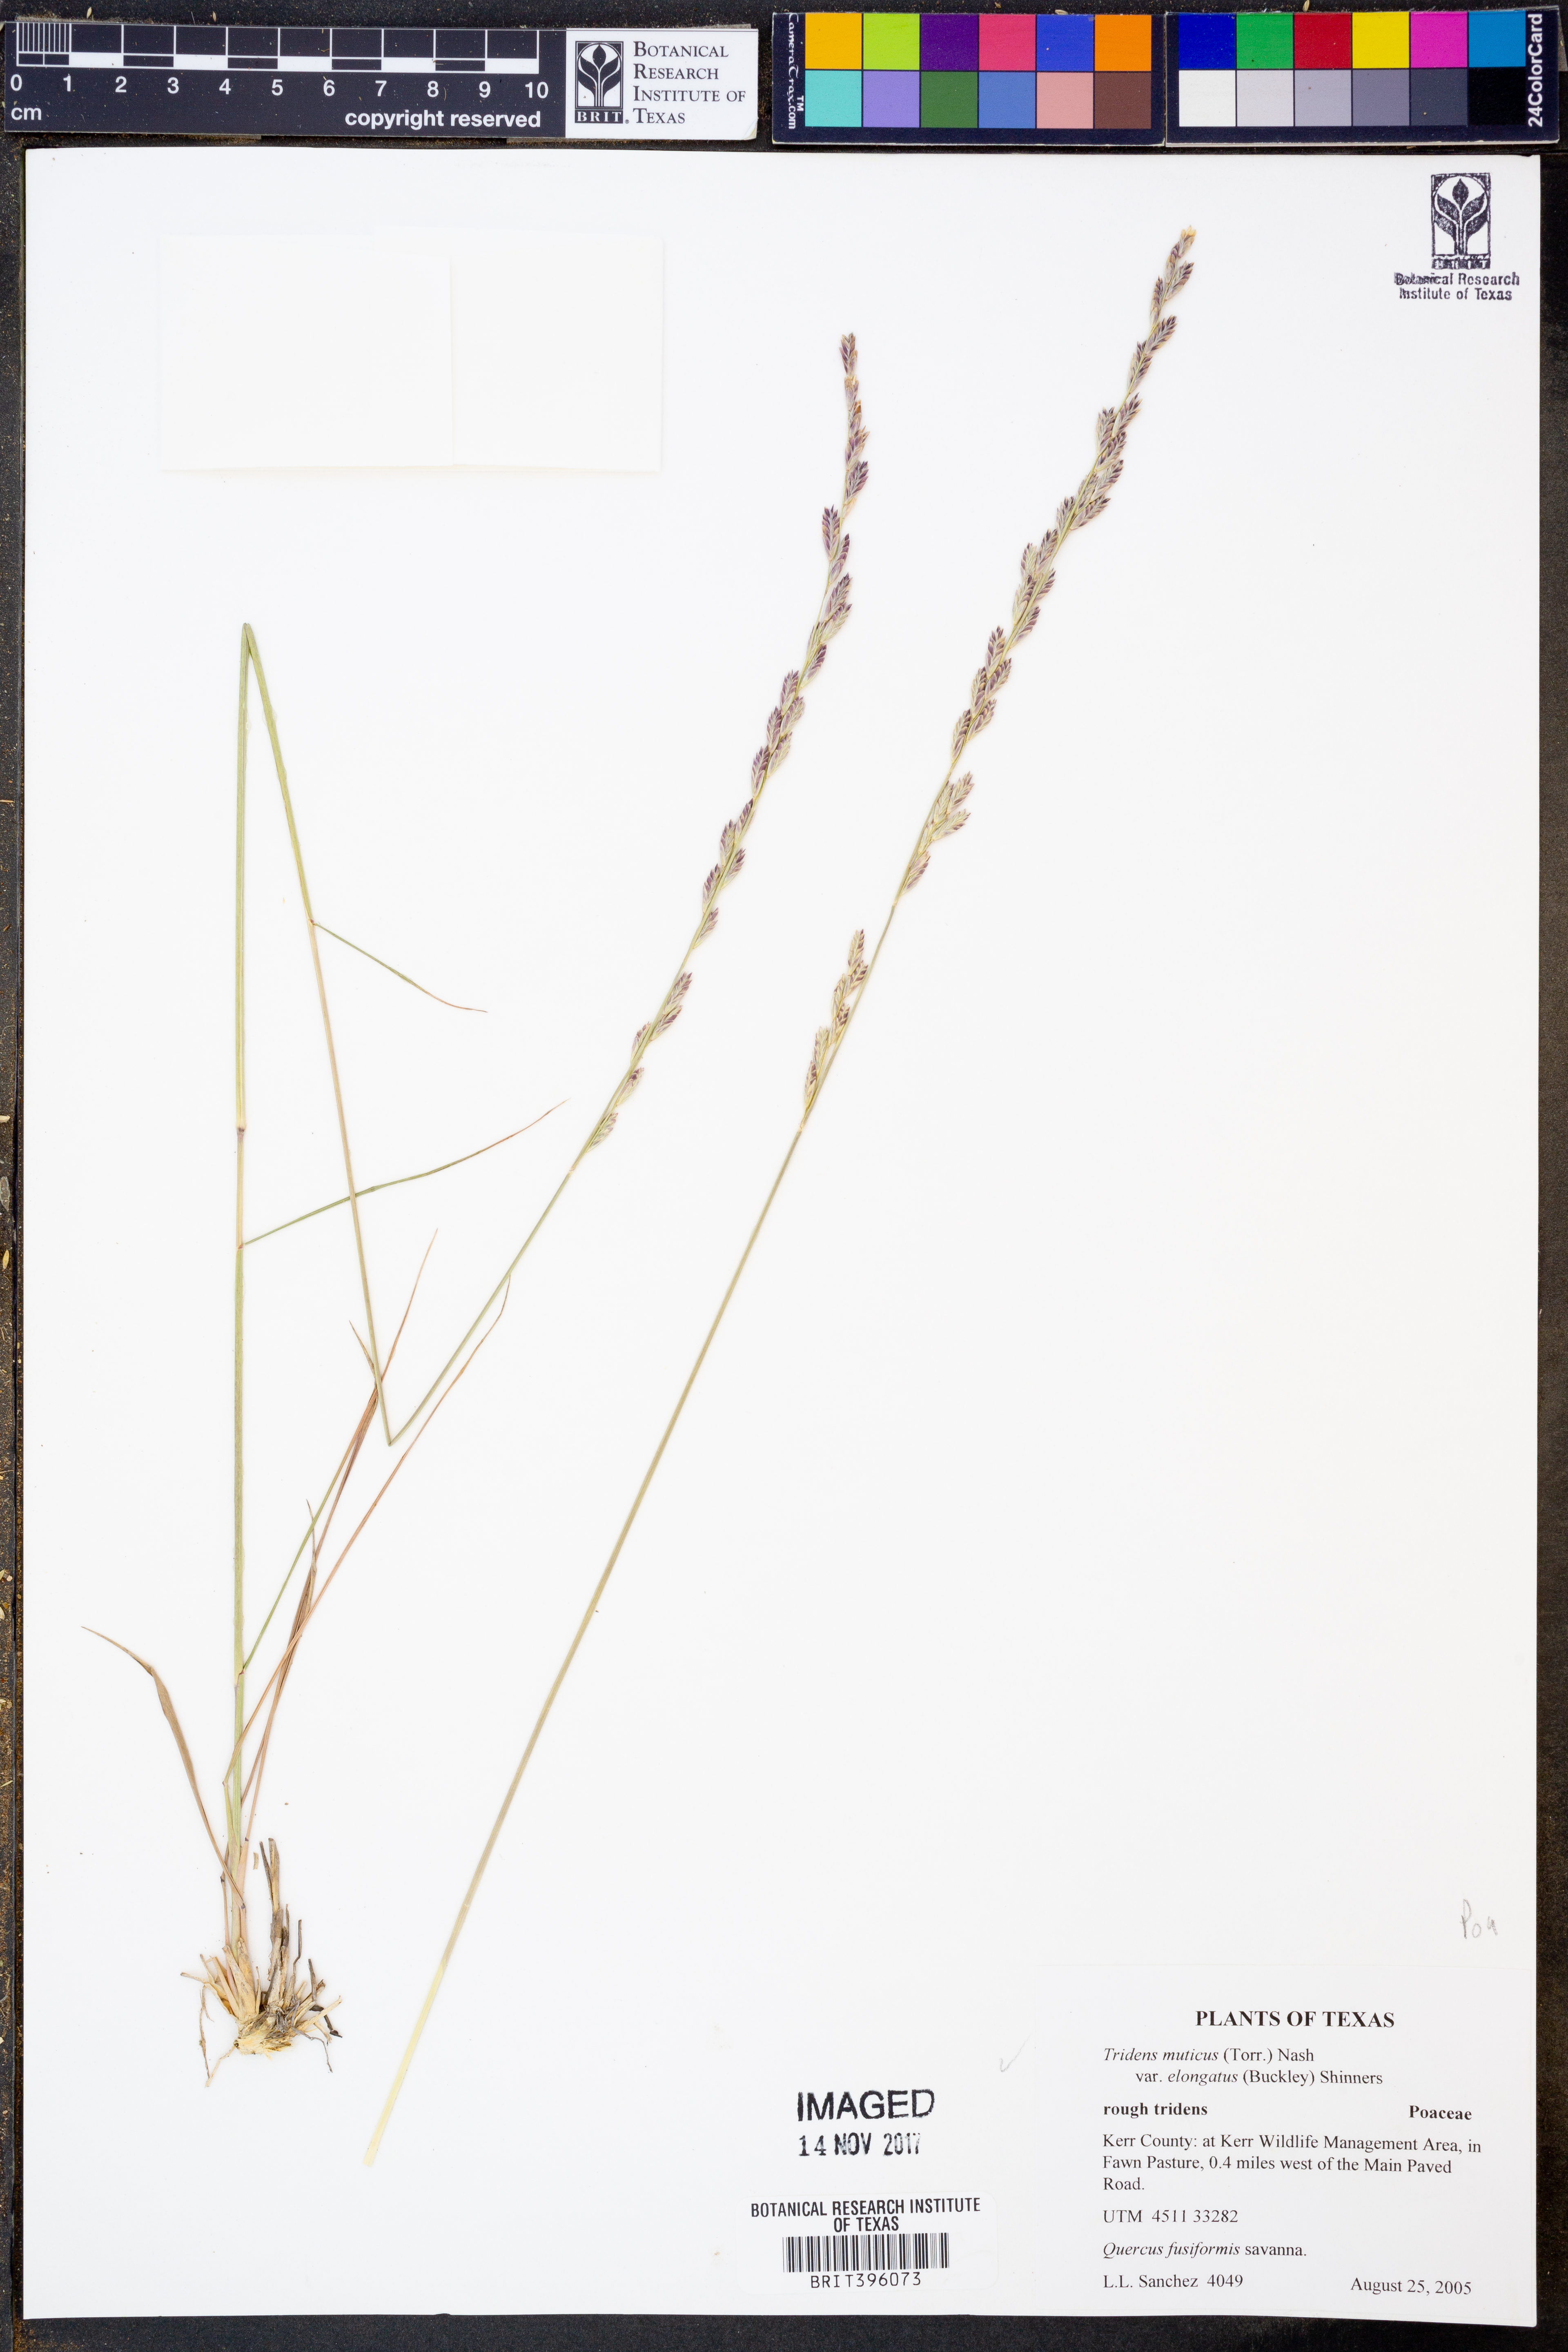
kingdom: Plantae
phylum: Tracheophyta
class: Liliopsida
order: Poales
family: Poaceae
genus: Tridentopsis
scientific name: Tridentopsis mutica
